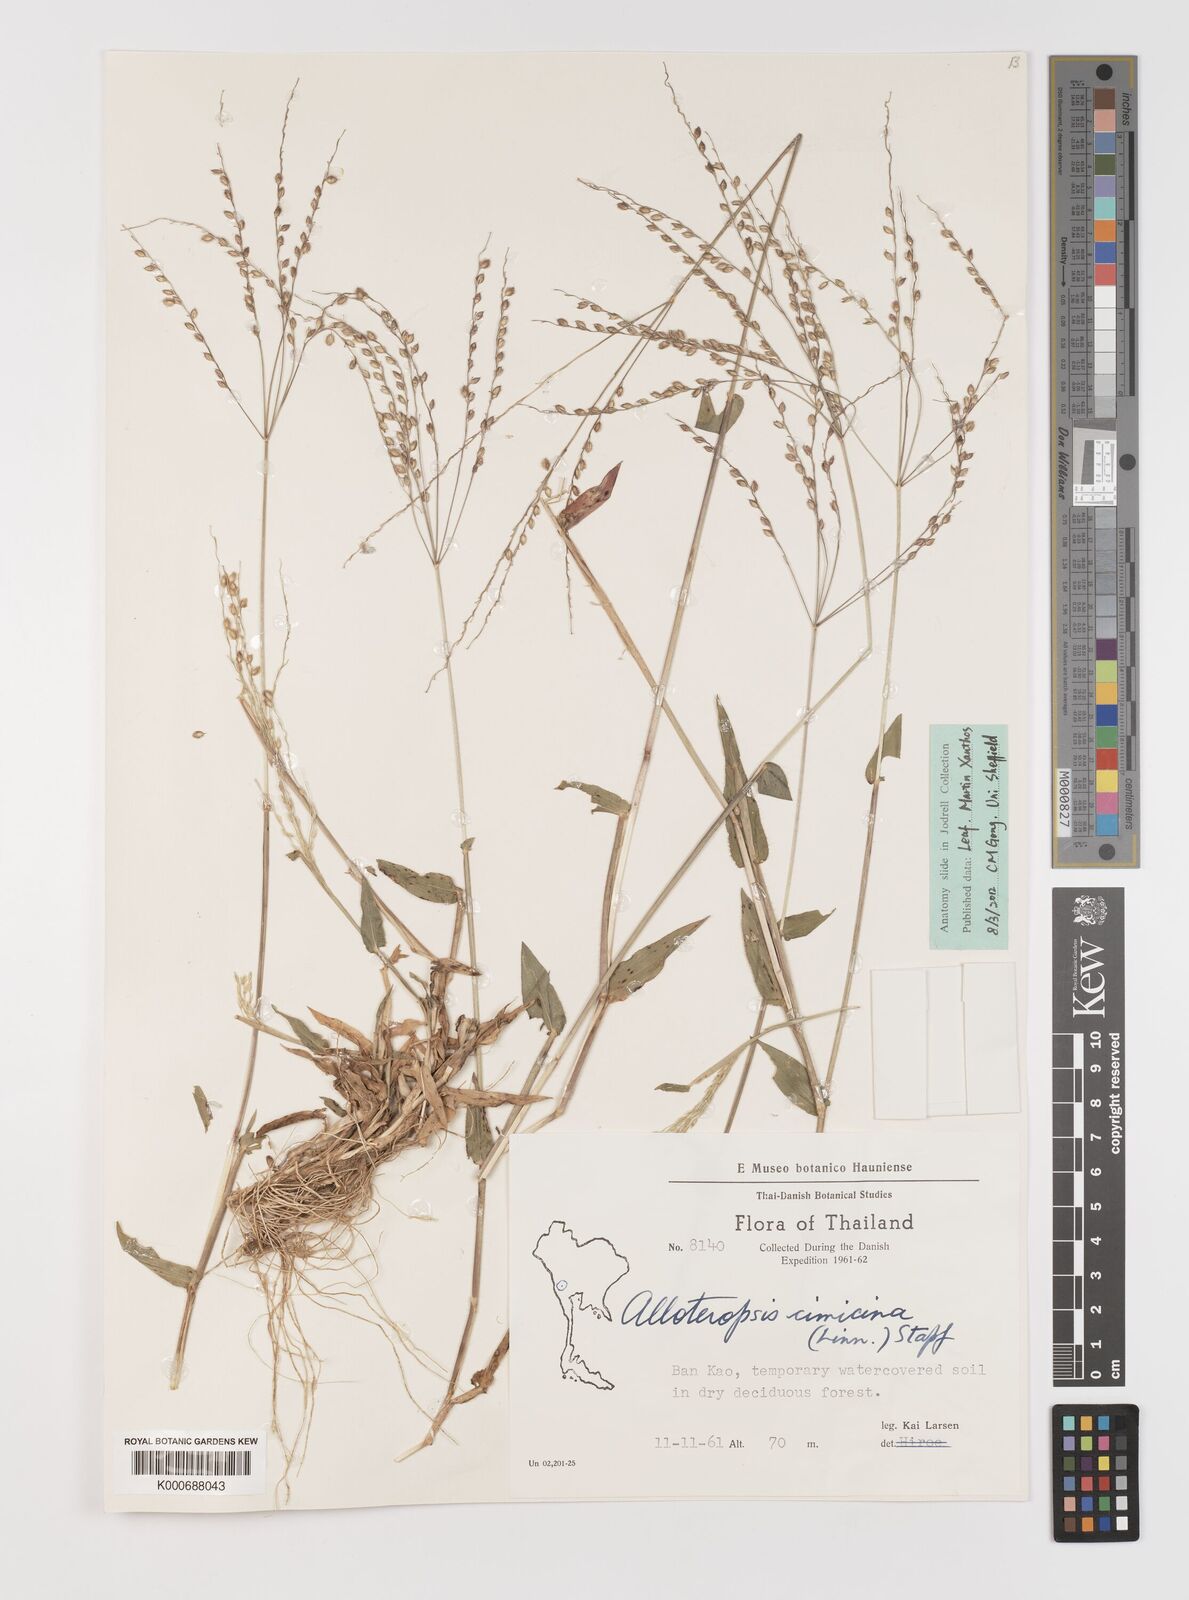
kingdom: Plantae
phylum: Tracheophyta
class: Liliopsida
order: Poales
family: Poaceae
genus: Alloteropsis
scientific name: Alloteropsis cimicina
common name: Summergrass
